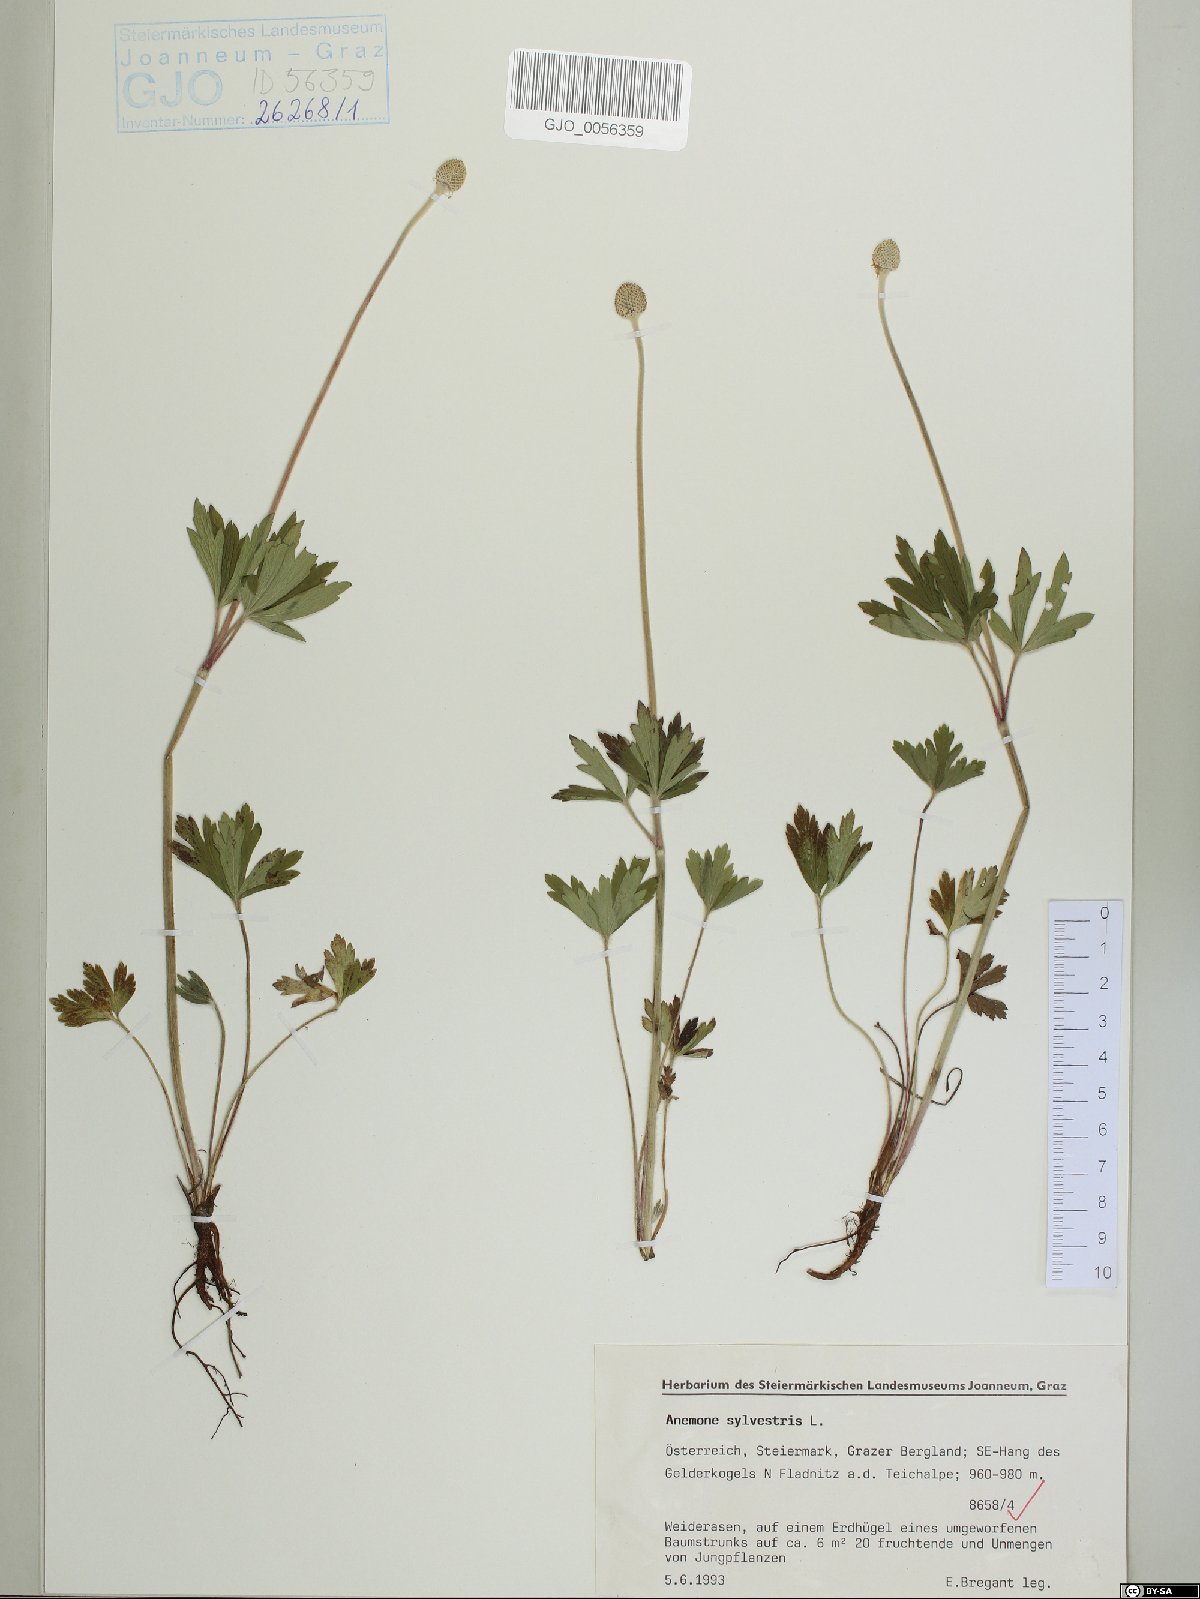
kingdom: Plantae
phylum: Tracheophyta
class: Magnoliopsida
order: Ranunculales
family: Ranunculaceae
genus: Anemone
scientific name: Anemone sylvestris
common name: Snowdrop anemone
